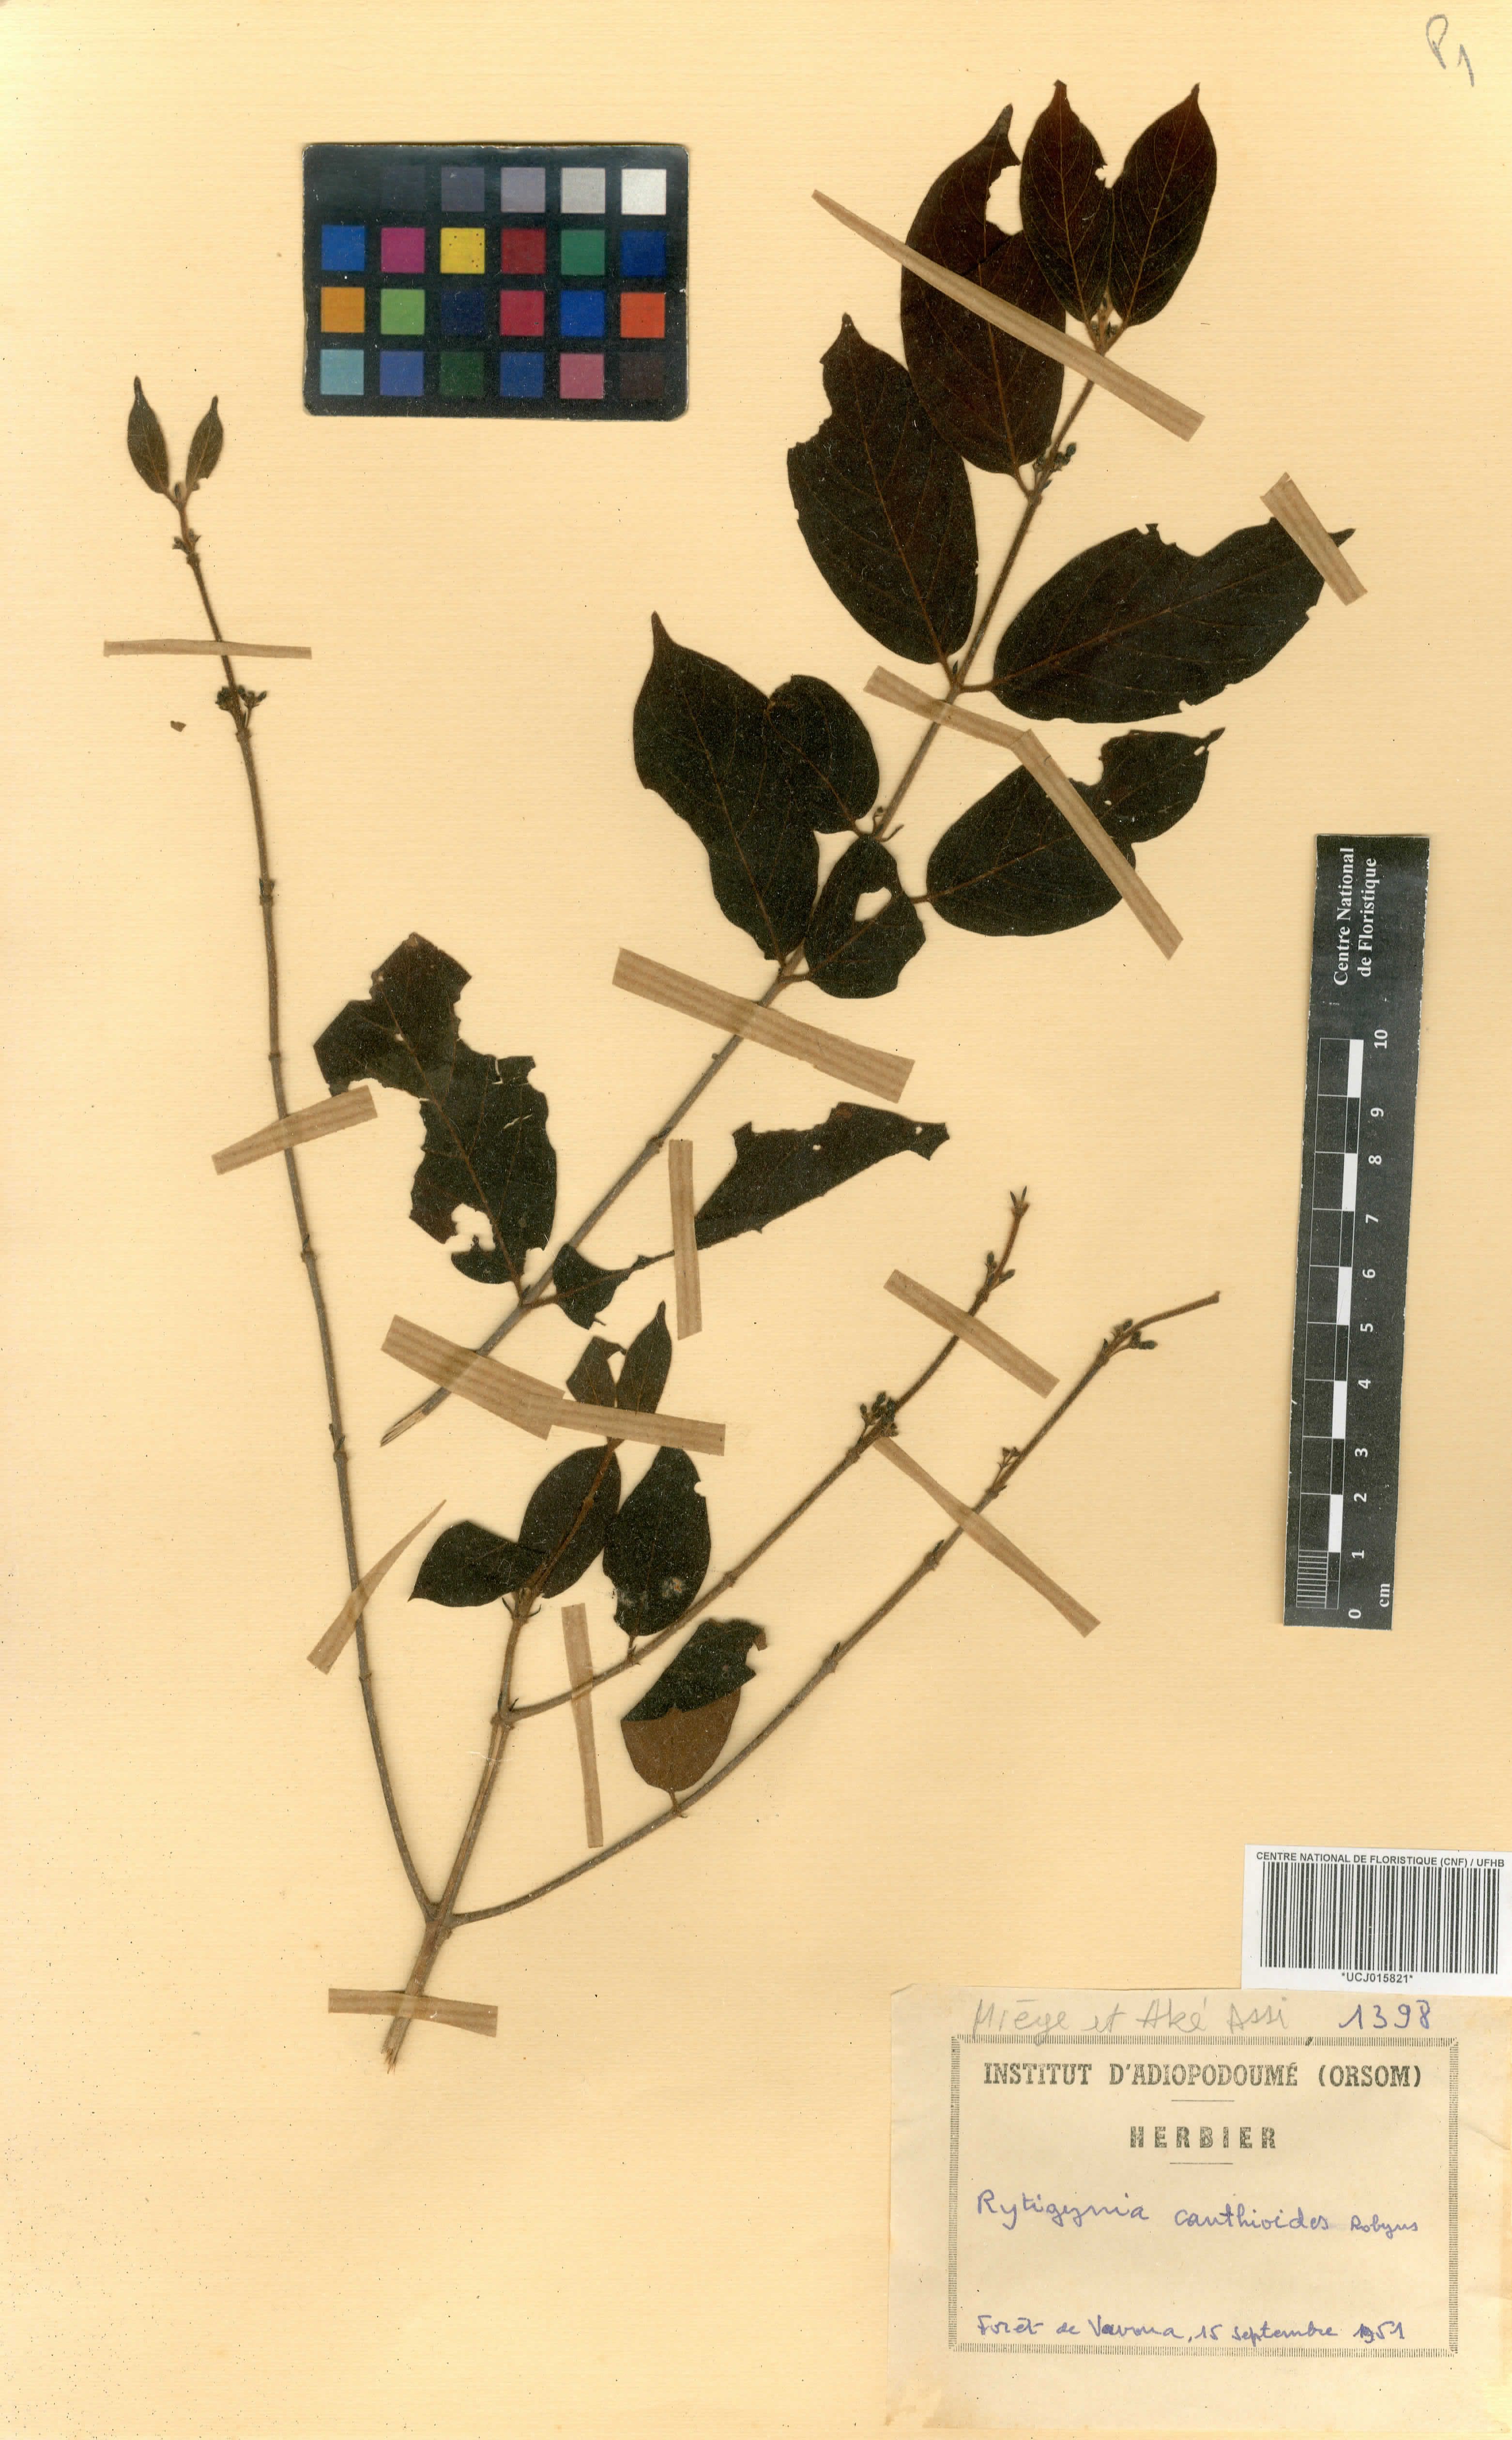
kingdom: Plantae
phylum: Tracheophyta
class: Magnoliopsida
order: Gentianales
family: Rubiaceae
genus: Rytigynia
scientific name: Rytigynia canthioides
